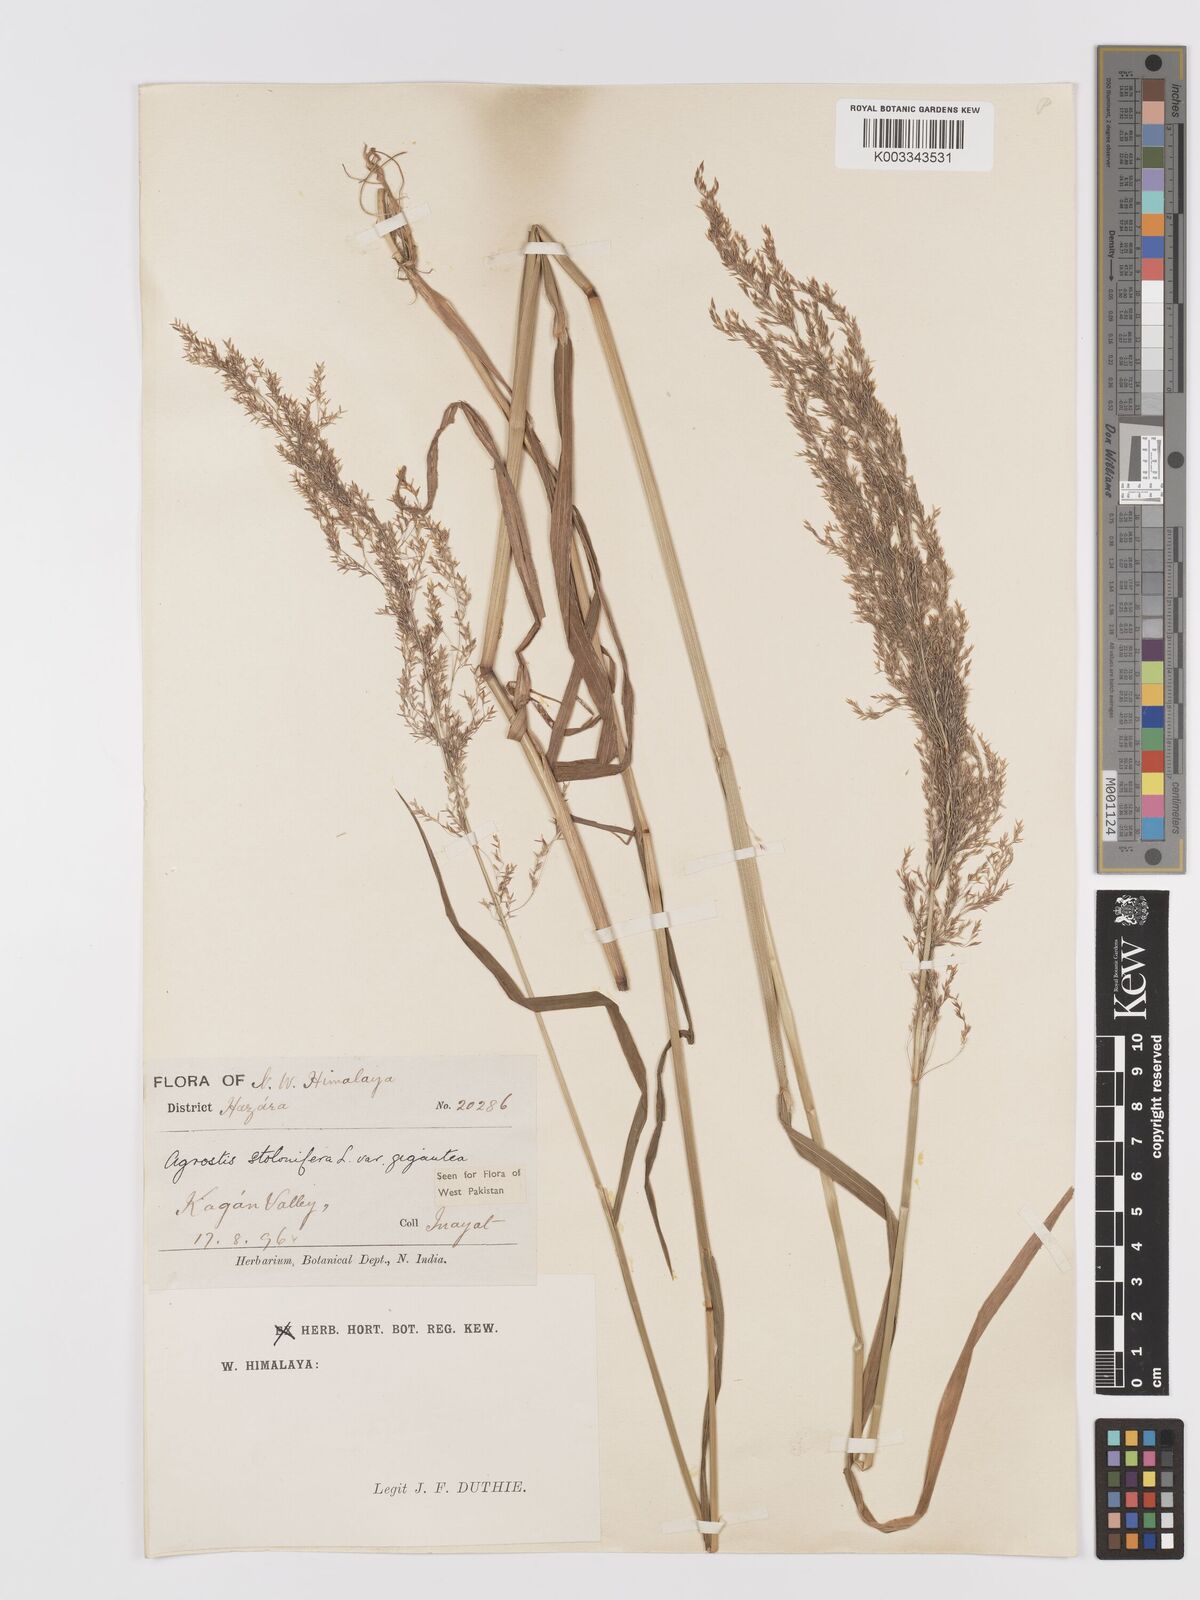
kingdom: Plantae
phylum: Tracheophyta
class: Liliopsida
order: Poales
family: Poaceae
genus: Agrostis
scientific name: Agrostis gigantea
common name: Black bent
